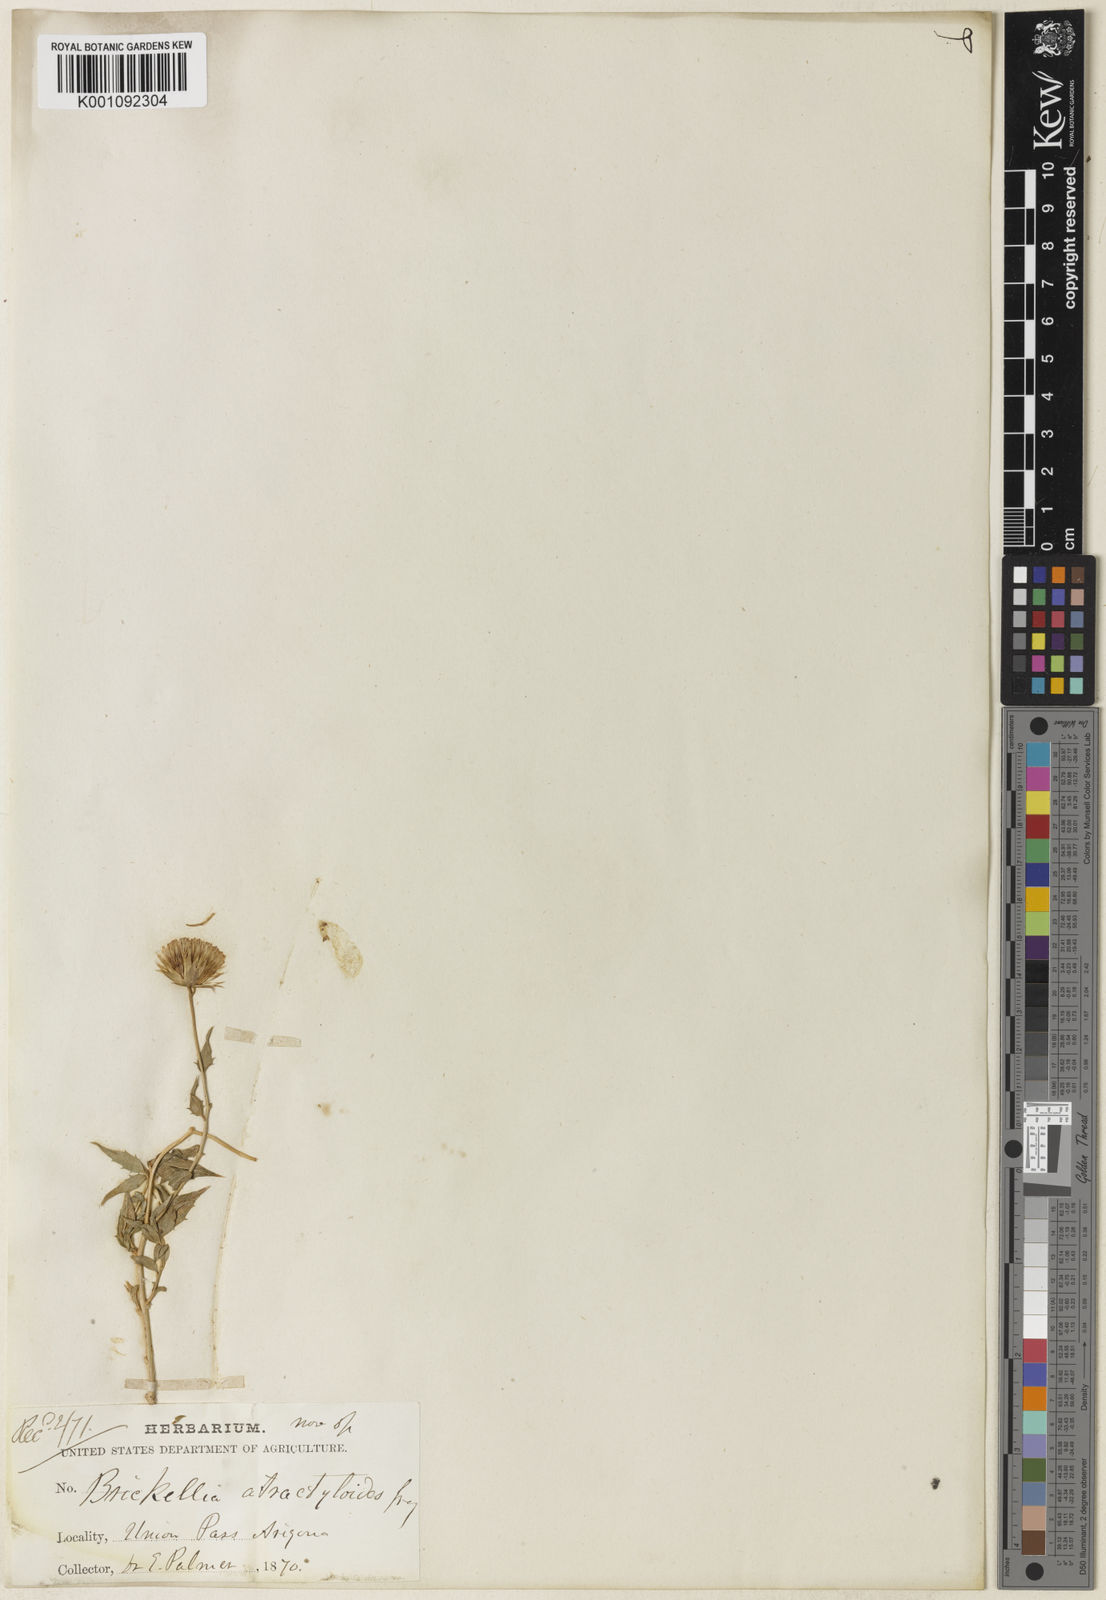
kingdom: Plantae
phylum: Tracheophyta
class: Magnoliopsida
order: Asterales
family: Asteraceae
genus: Brickellia
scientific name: Brickellia atractyloides
